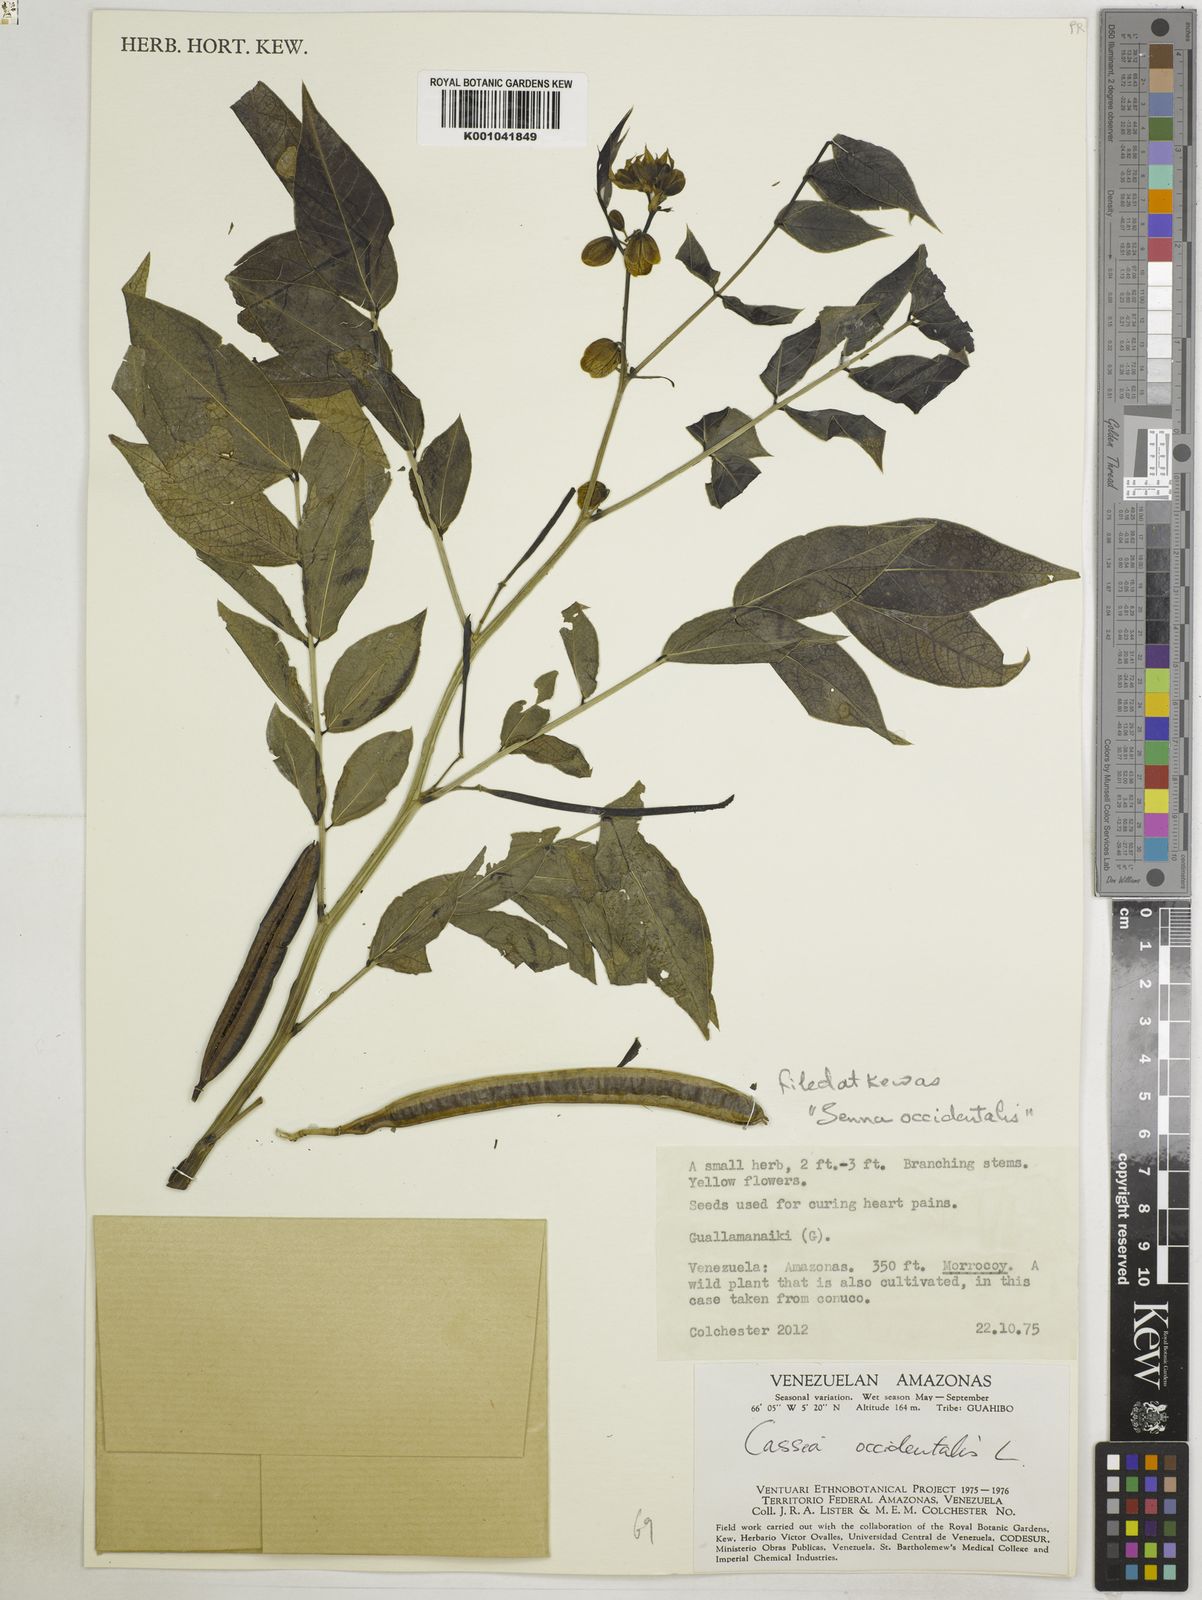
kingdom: Plantae
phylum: Tracheophyta
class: Magnoliopsida
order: Fabales
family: Fabaceae
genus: Senna
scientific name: Senna occidentalis
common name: Septicweed
